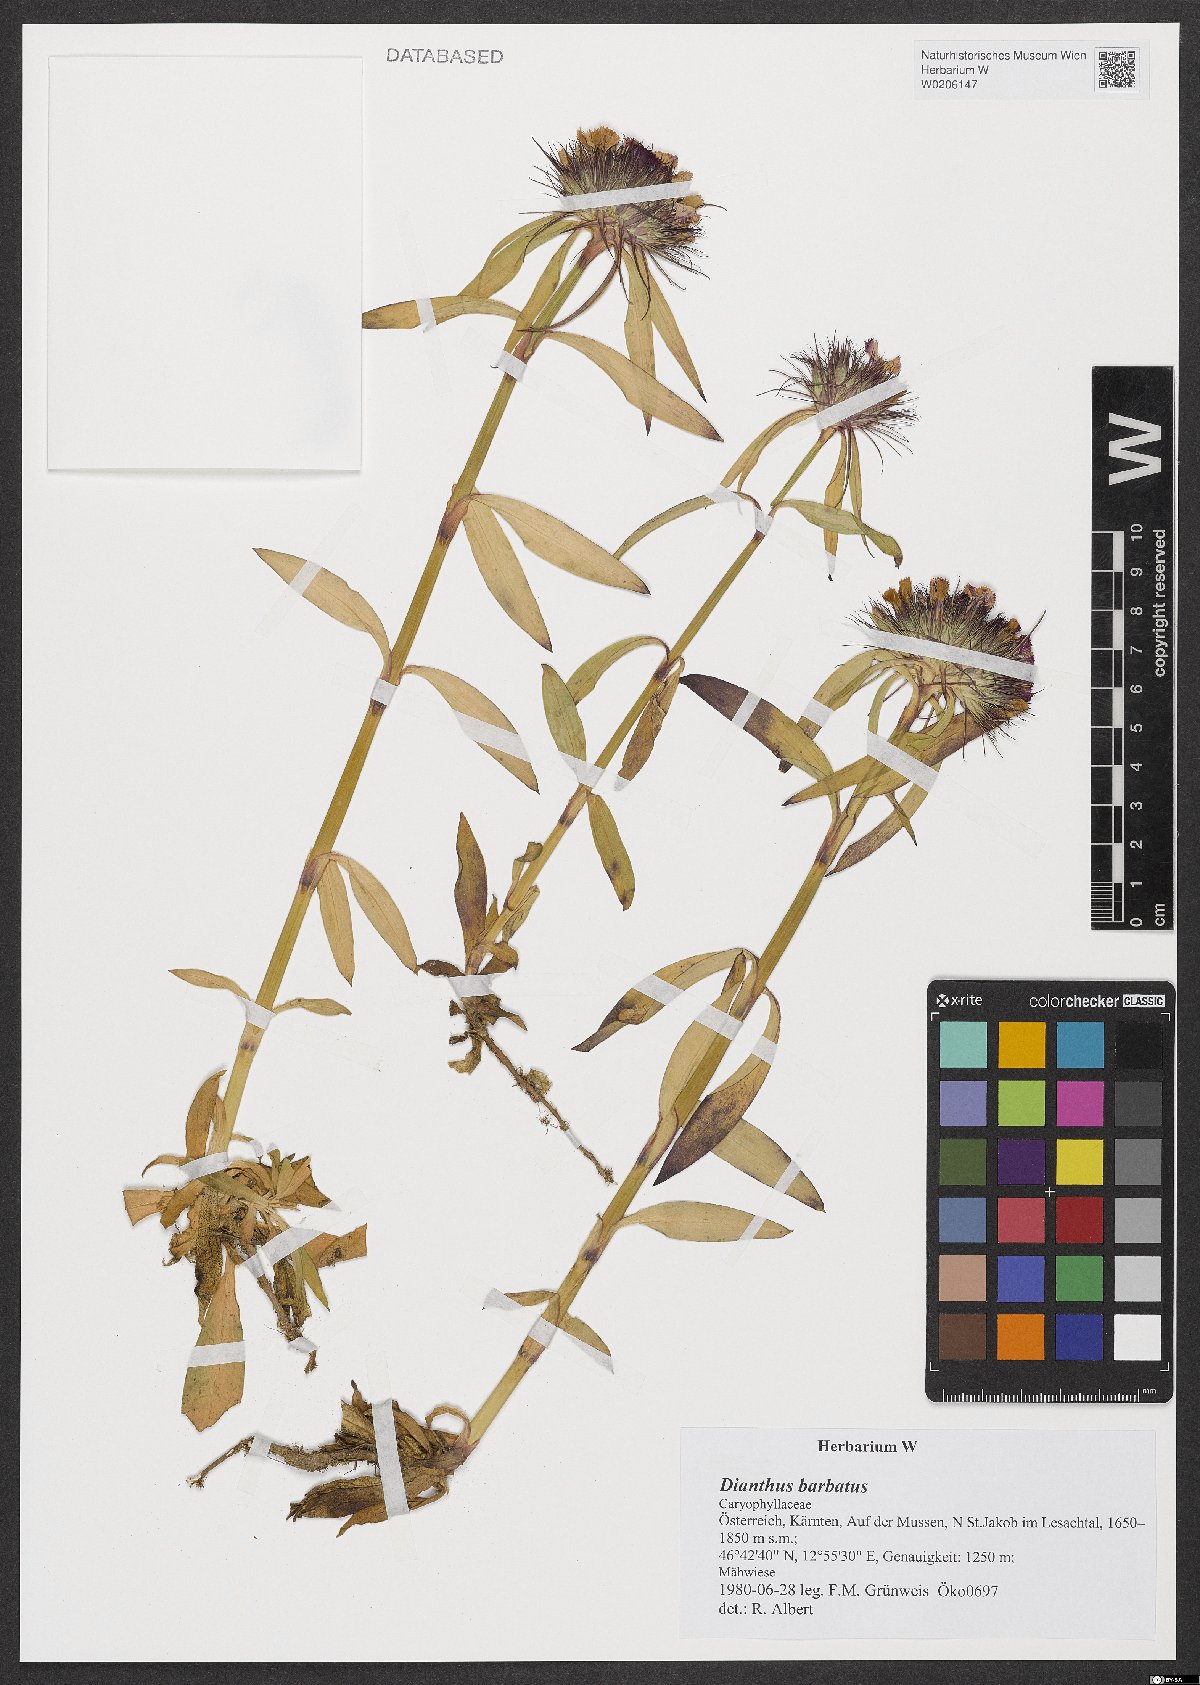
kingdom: Plantae
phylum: Tracheophyta
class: Magnoliopsida
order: Caryophyllales
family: Caryophyllaceae
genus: Dianthus
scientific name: Dianthus barbatus
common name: Sweet-william
